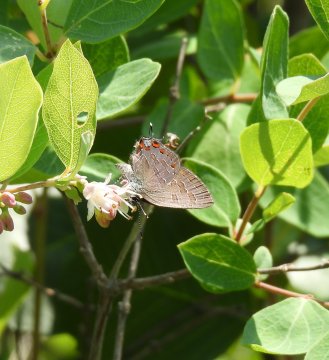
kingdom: Animalia
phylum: Arthropoda
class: Insecta
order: Lepidoptera
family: Lycaenidae
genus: Satyrium
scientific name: Satyrium liparops
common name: Striped Hairstreak
